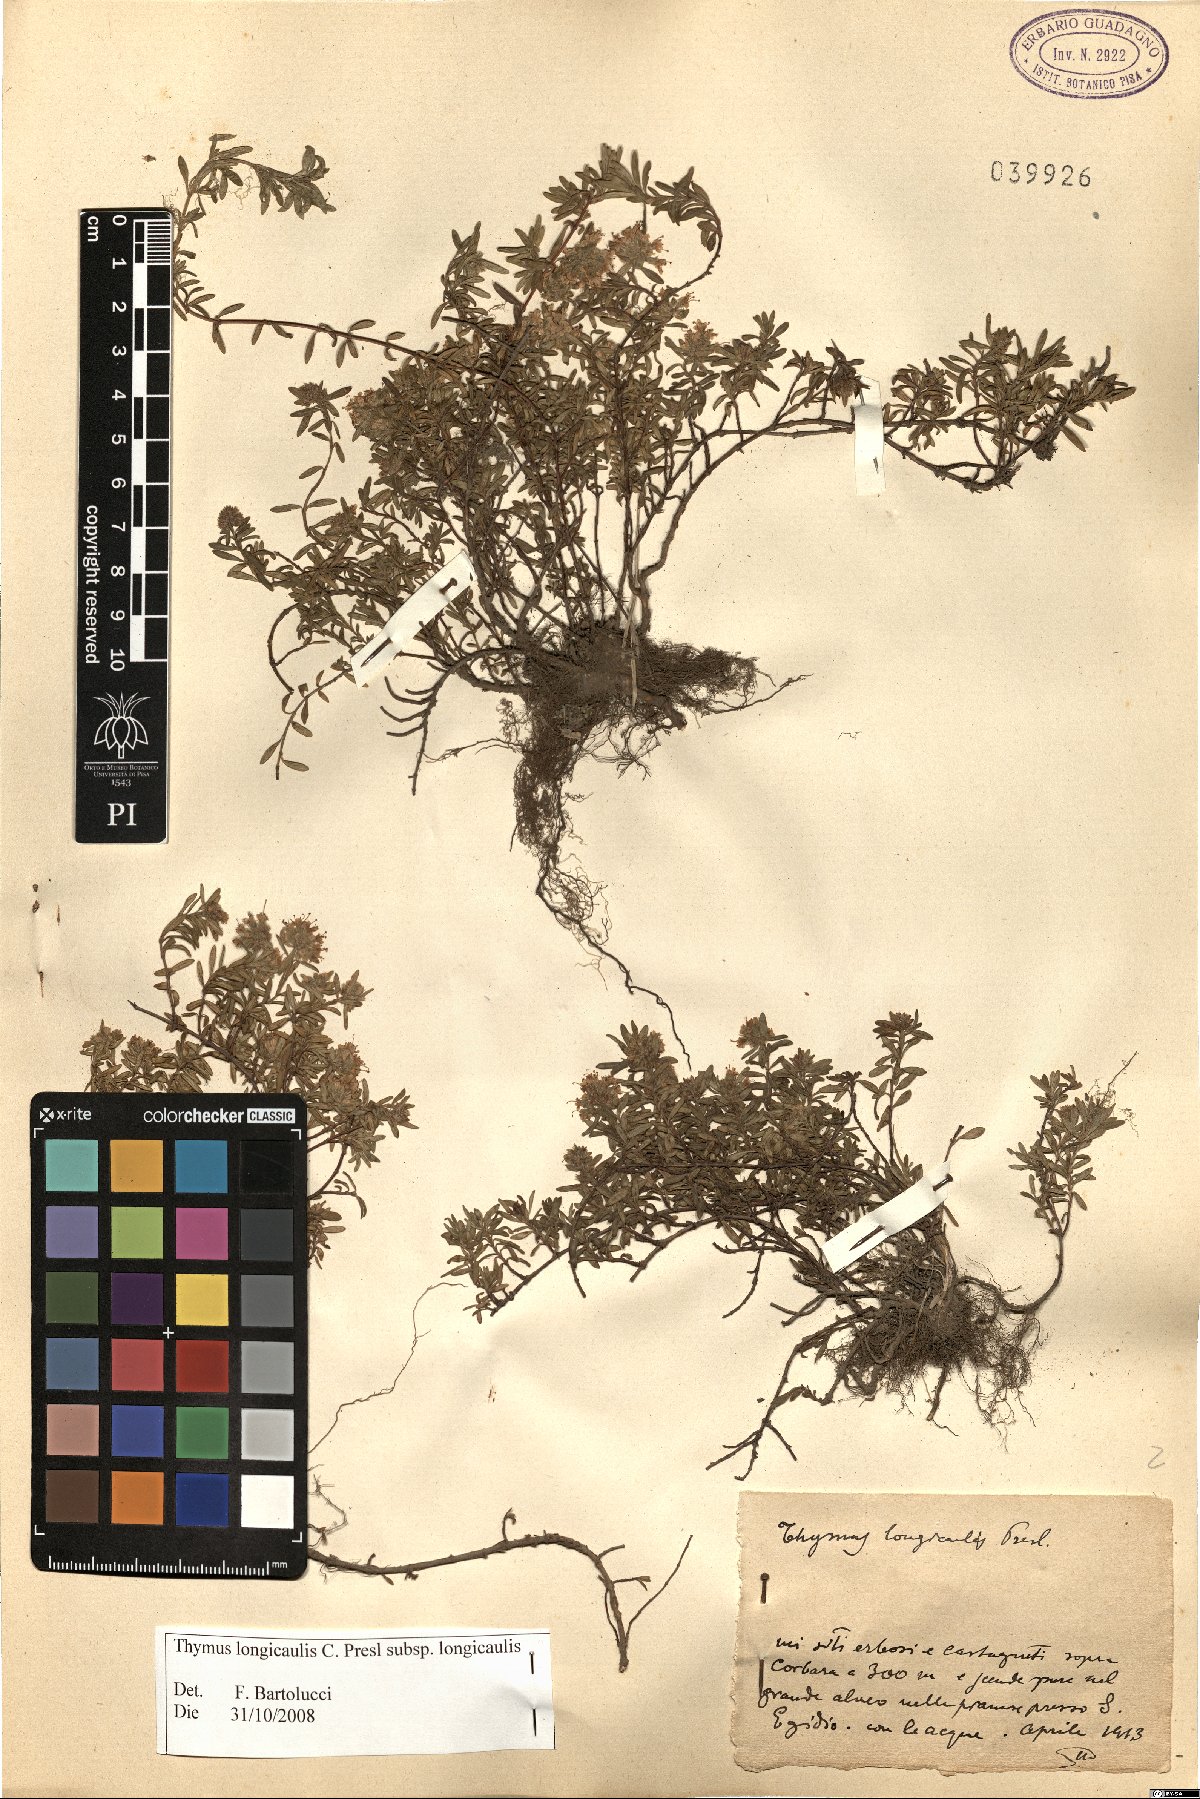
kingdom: Plantae
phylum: Tracheophyta
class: Magnoliopsida
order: Lamiales
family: Lamiaceae
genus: Thymus
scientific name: Thymus longicaulis
